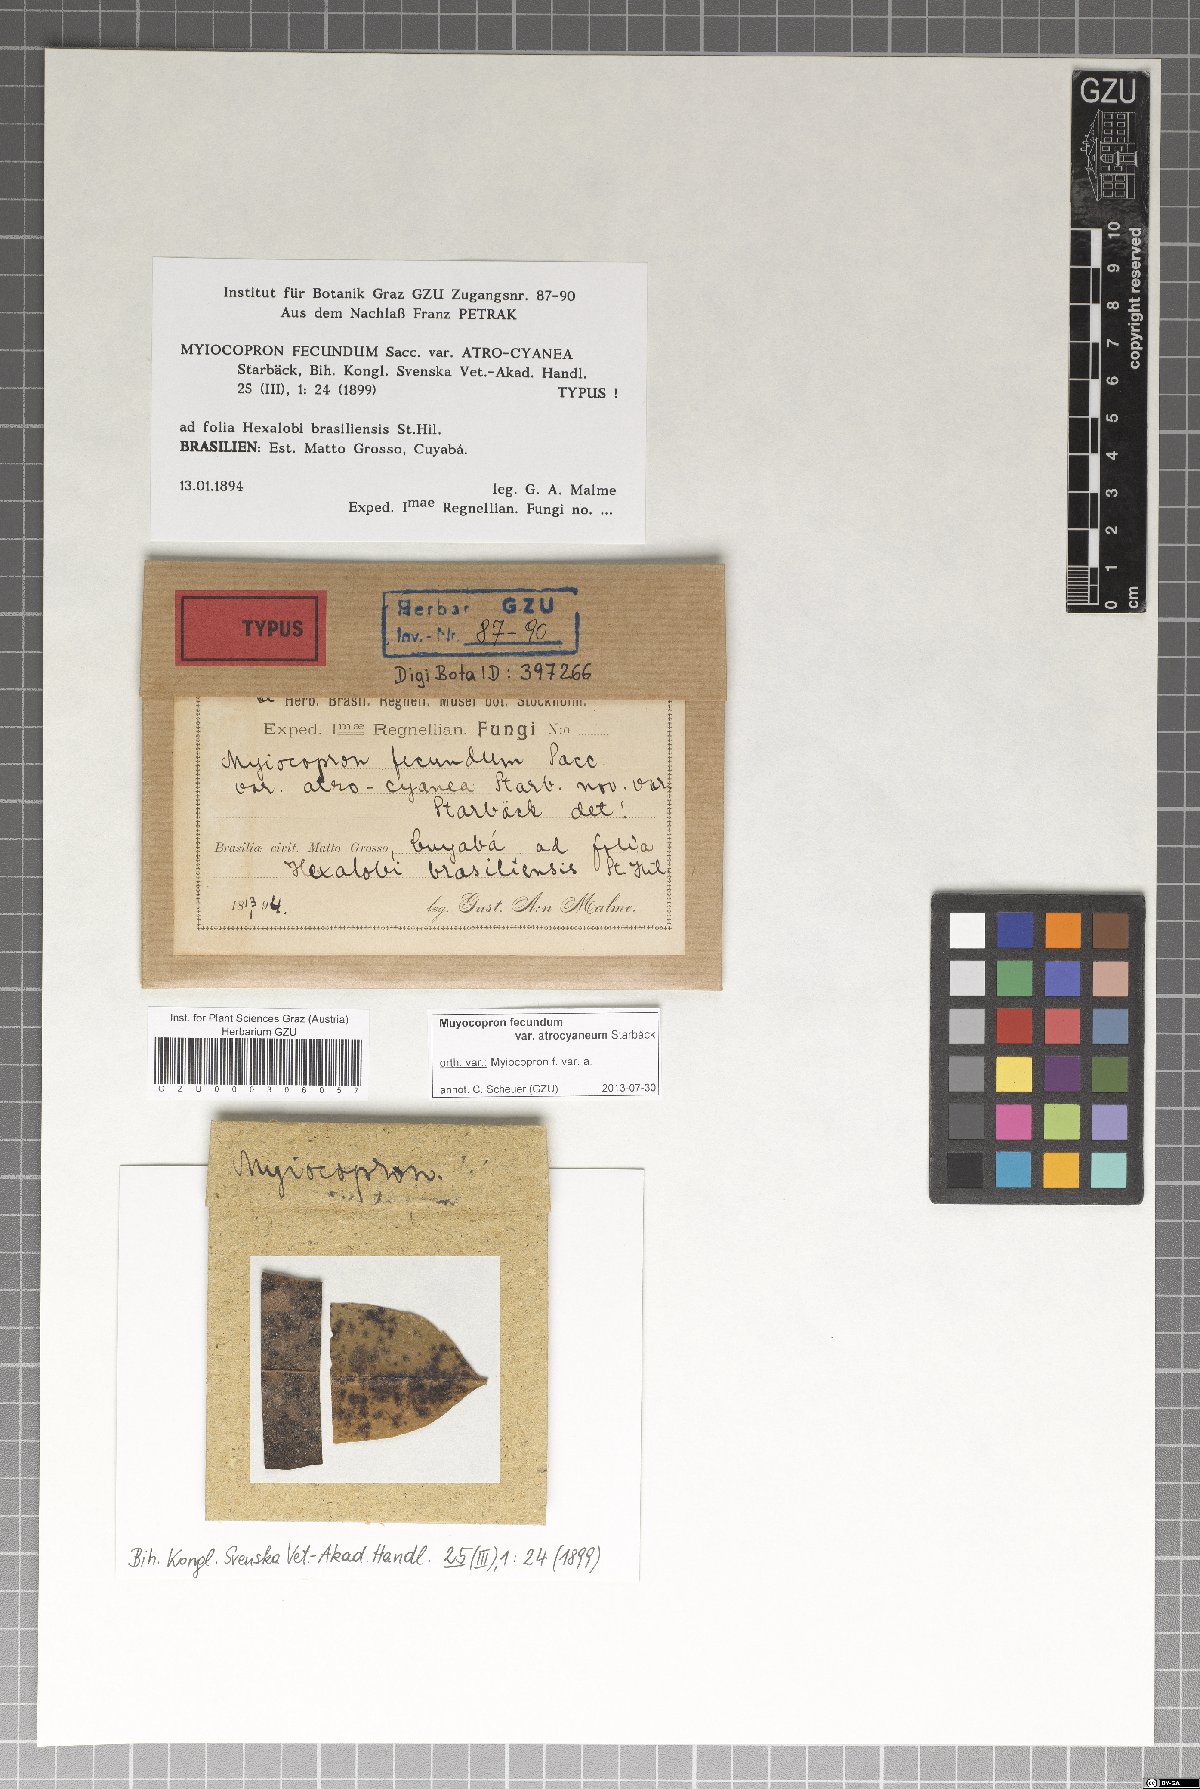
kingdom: Fungi
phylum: Ascomycota
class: Dothideomycetes
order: Microthyriales
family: Micropeltidaceae
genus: Dictyothyrina
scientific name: Dictyothyrina atrocyanea
